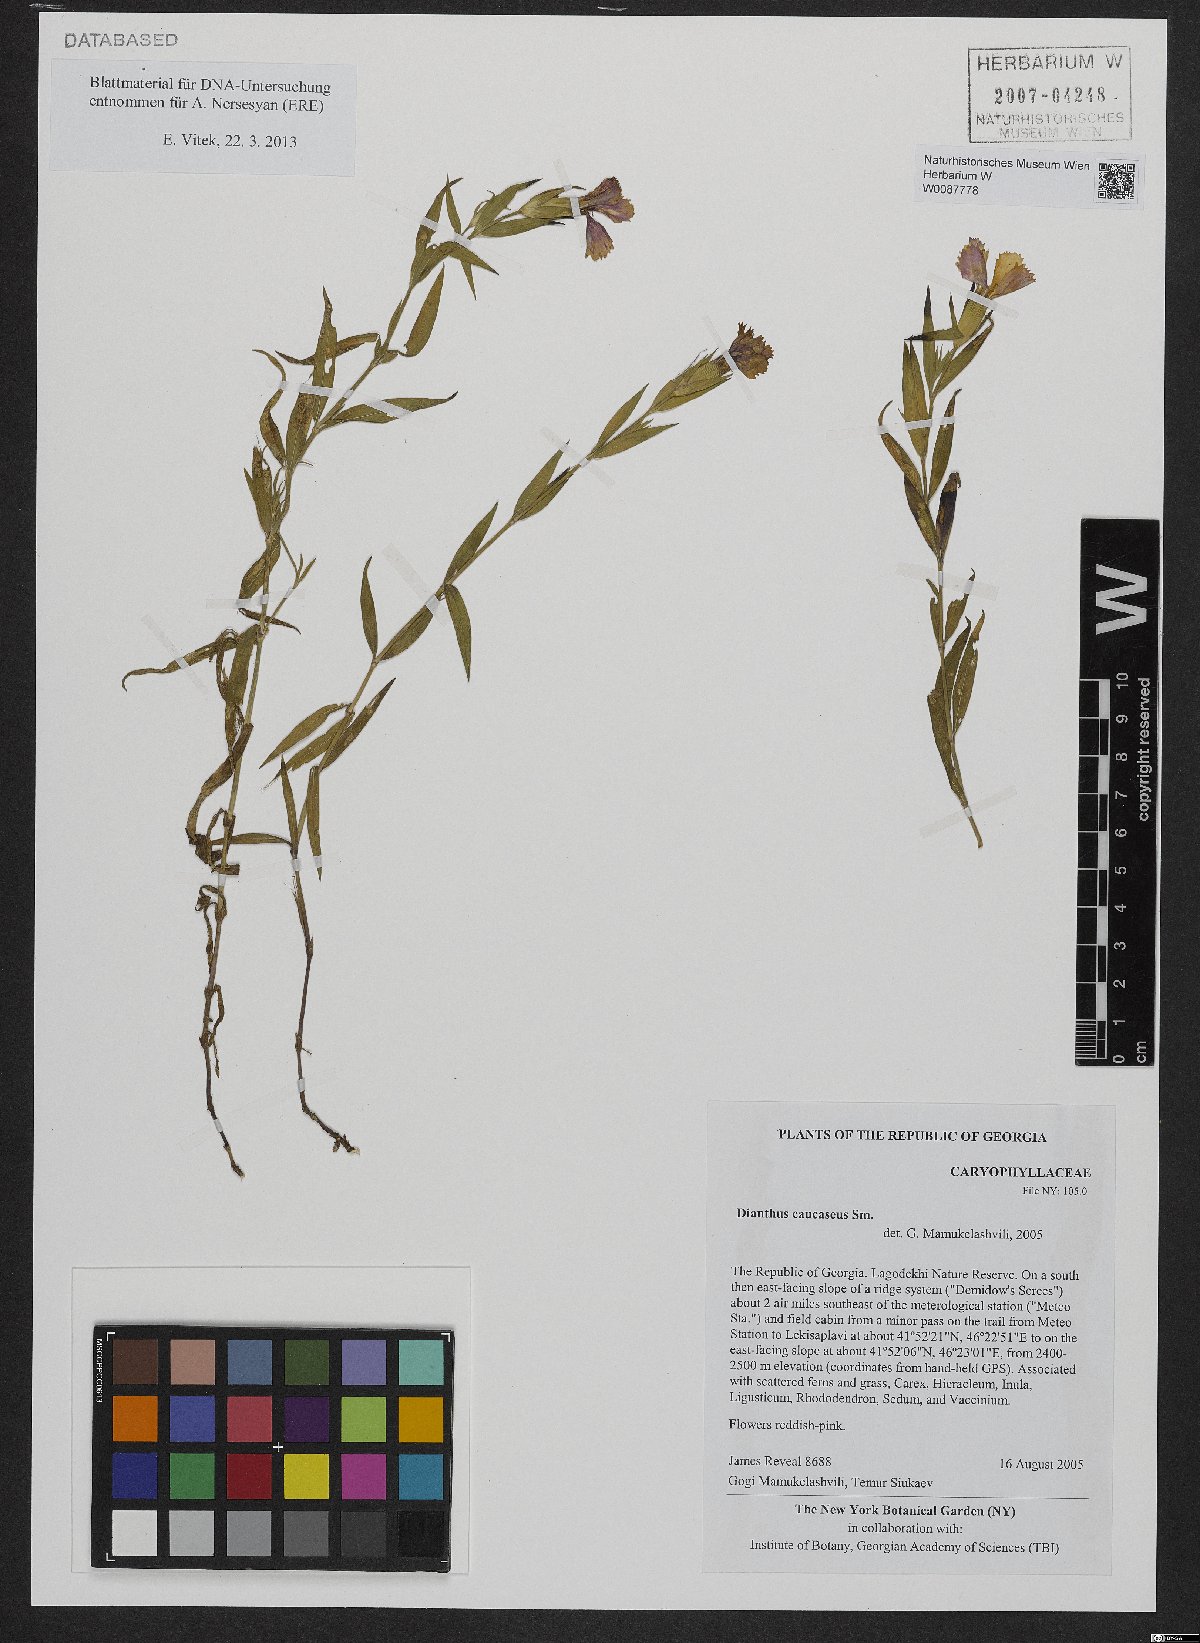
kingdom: Plantae
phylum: Tracheophyta
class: Magnoliopsida
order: Caryophyllales
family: Caryophyllaceae
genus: Dianthus
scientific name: Dianthus caucaseus
